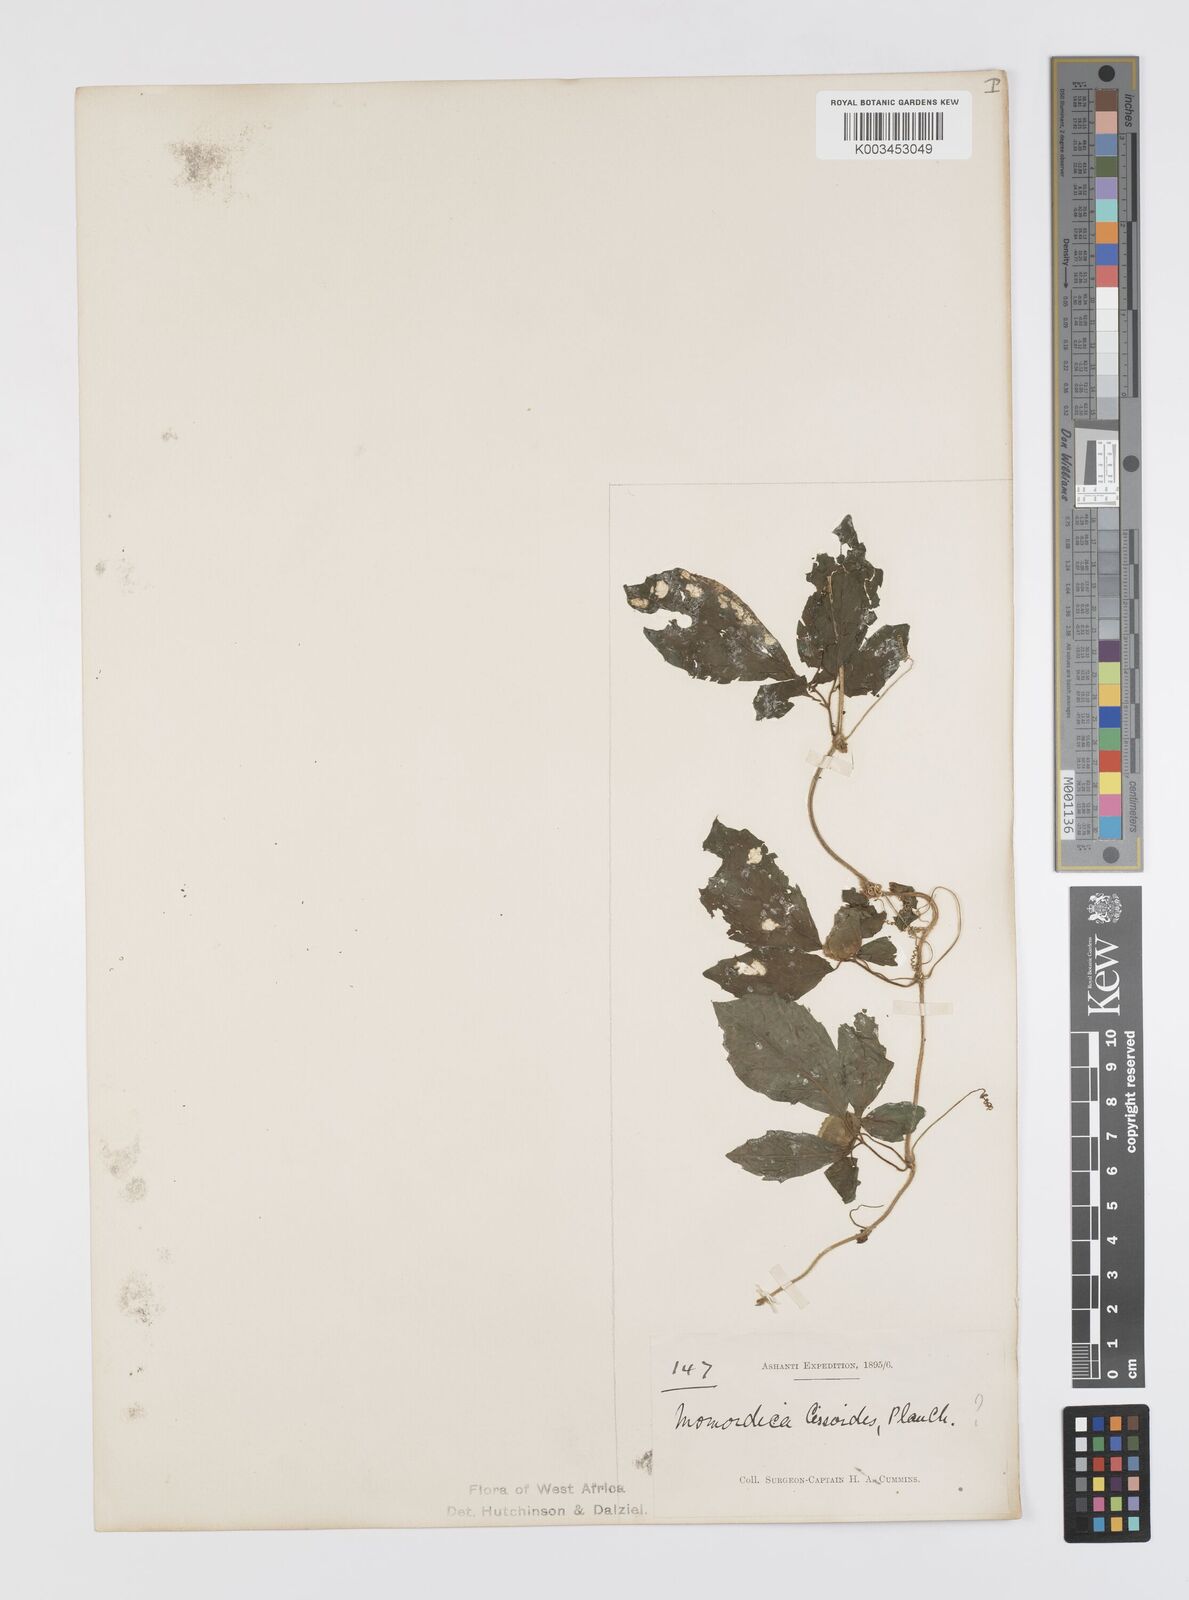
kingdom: Plantae
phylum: Tracheophyta
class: Magnoliopsida
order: Cucurbitales
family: Cucurbitaceae
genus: Momordica
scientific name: Momordica cissoides
